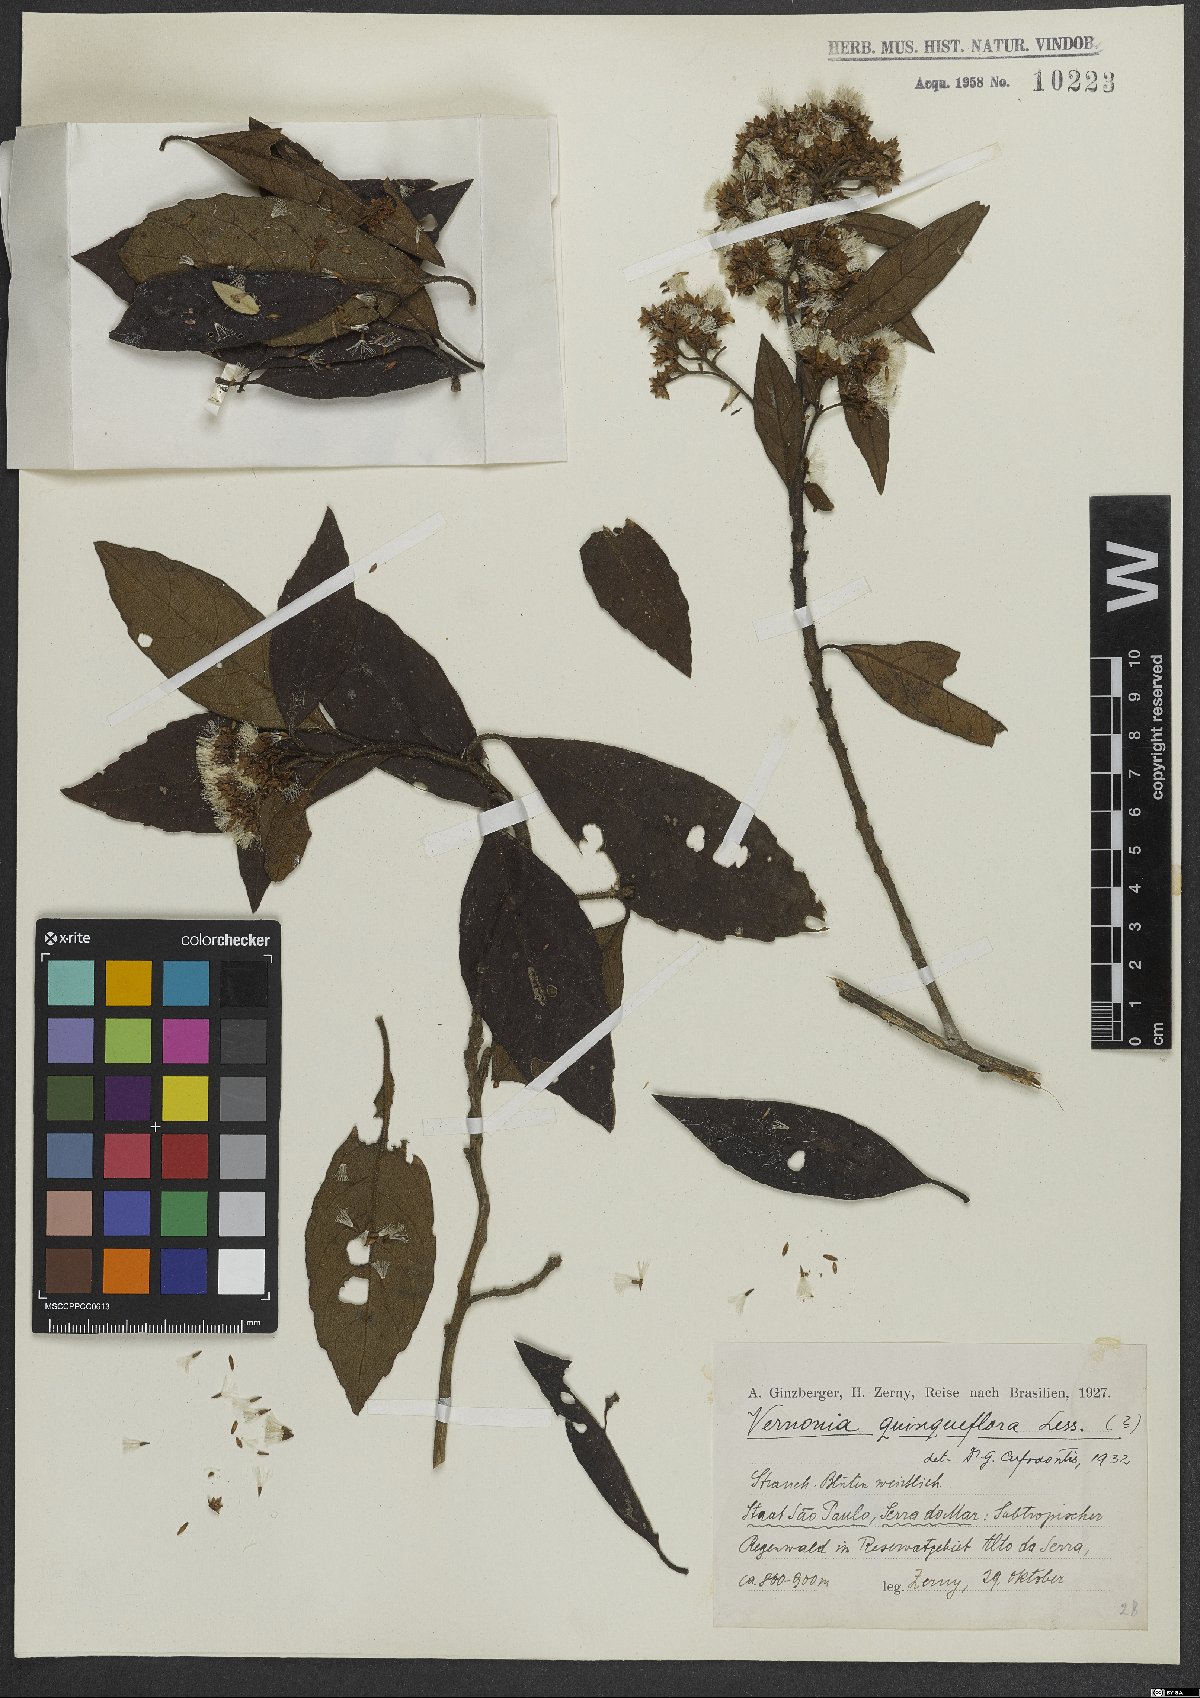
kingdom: Plantae
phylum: Tracheophyta
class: Magnoliopsida
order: Asterales
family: Asteraceae
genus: Critoniopsis
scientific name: Critoniopsis quinqueflora
